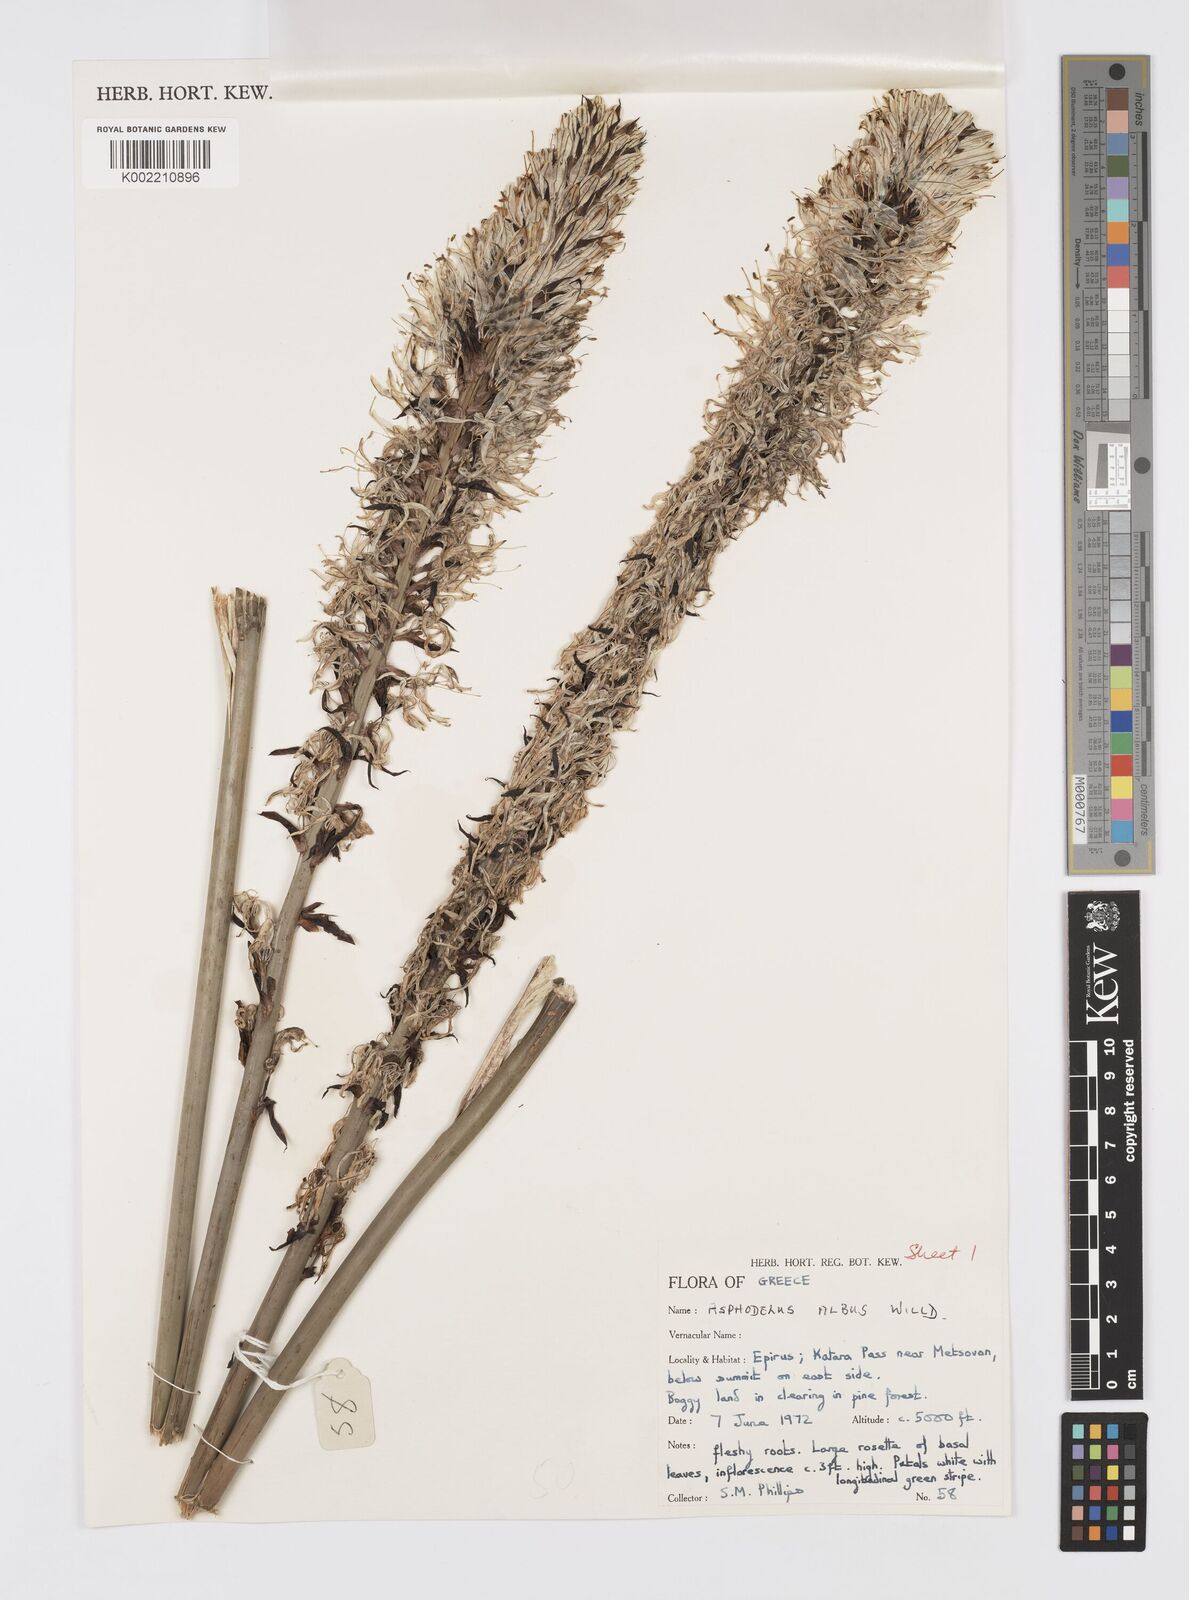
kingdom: Plantae
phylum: Tracheophyta
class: Liliopsida
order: Asparagales
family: Asphodelaceae
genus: Asphodelus
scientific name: Asphodelus albus
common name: White asphodel
